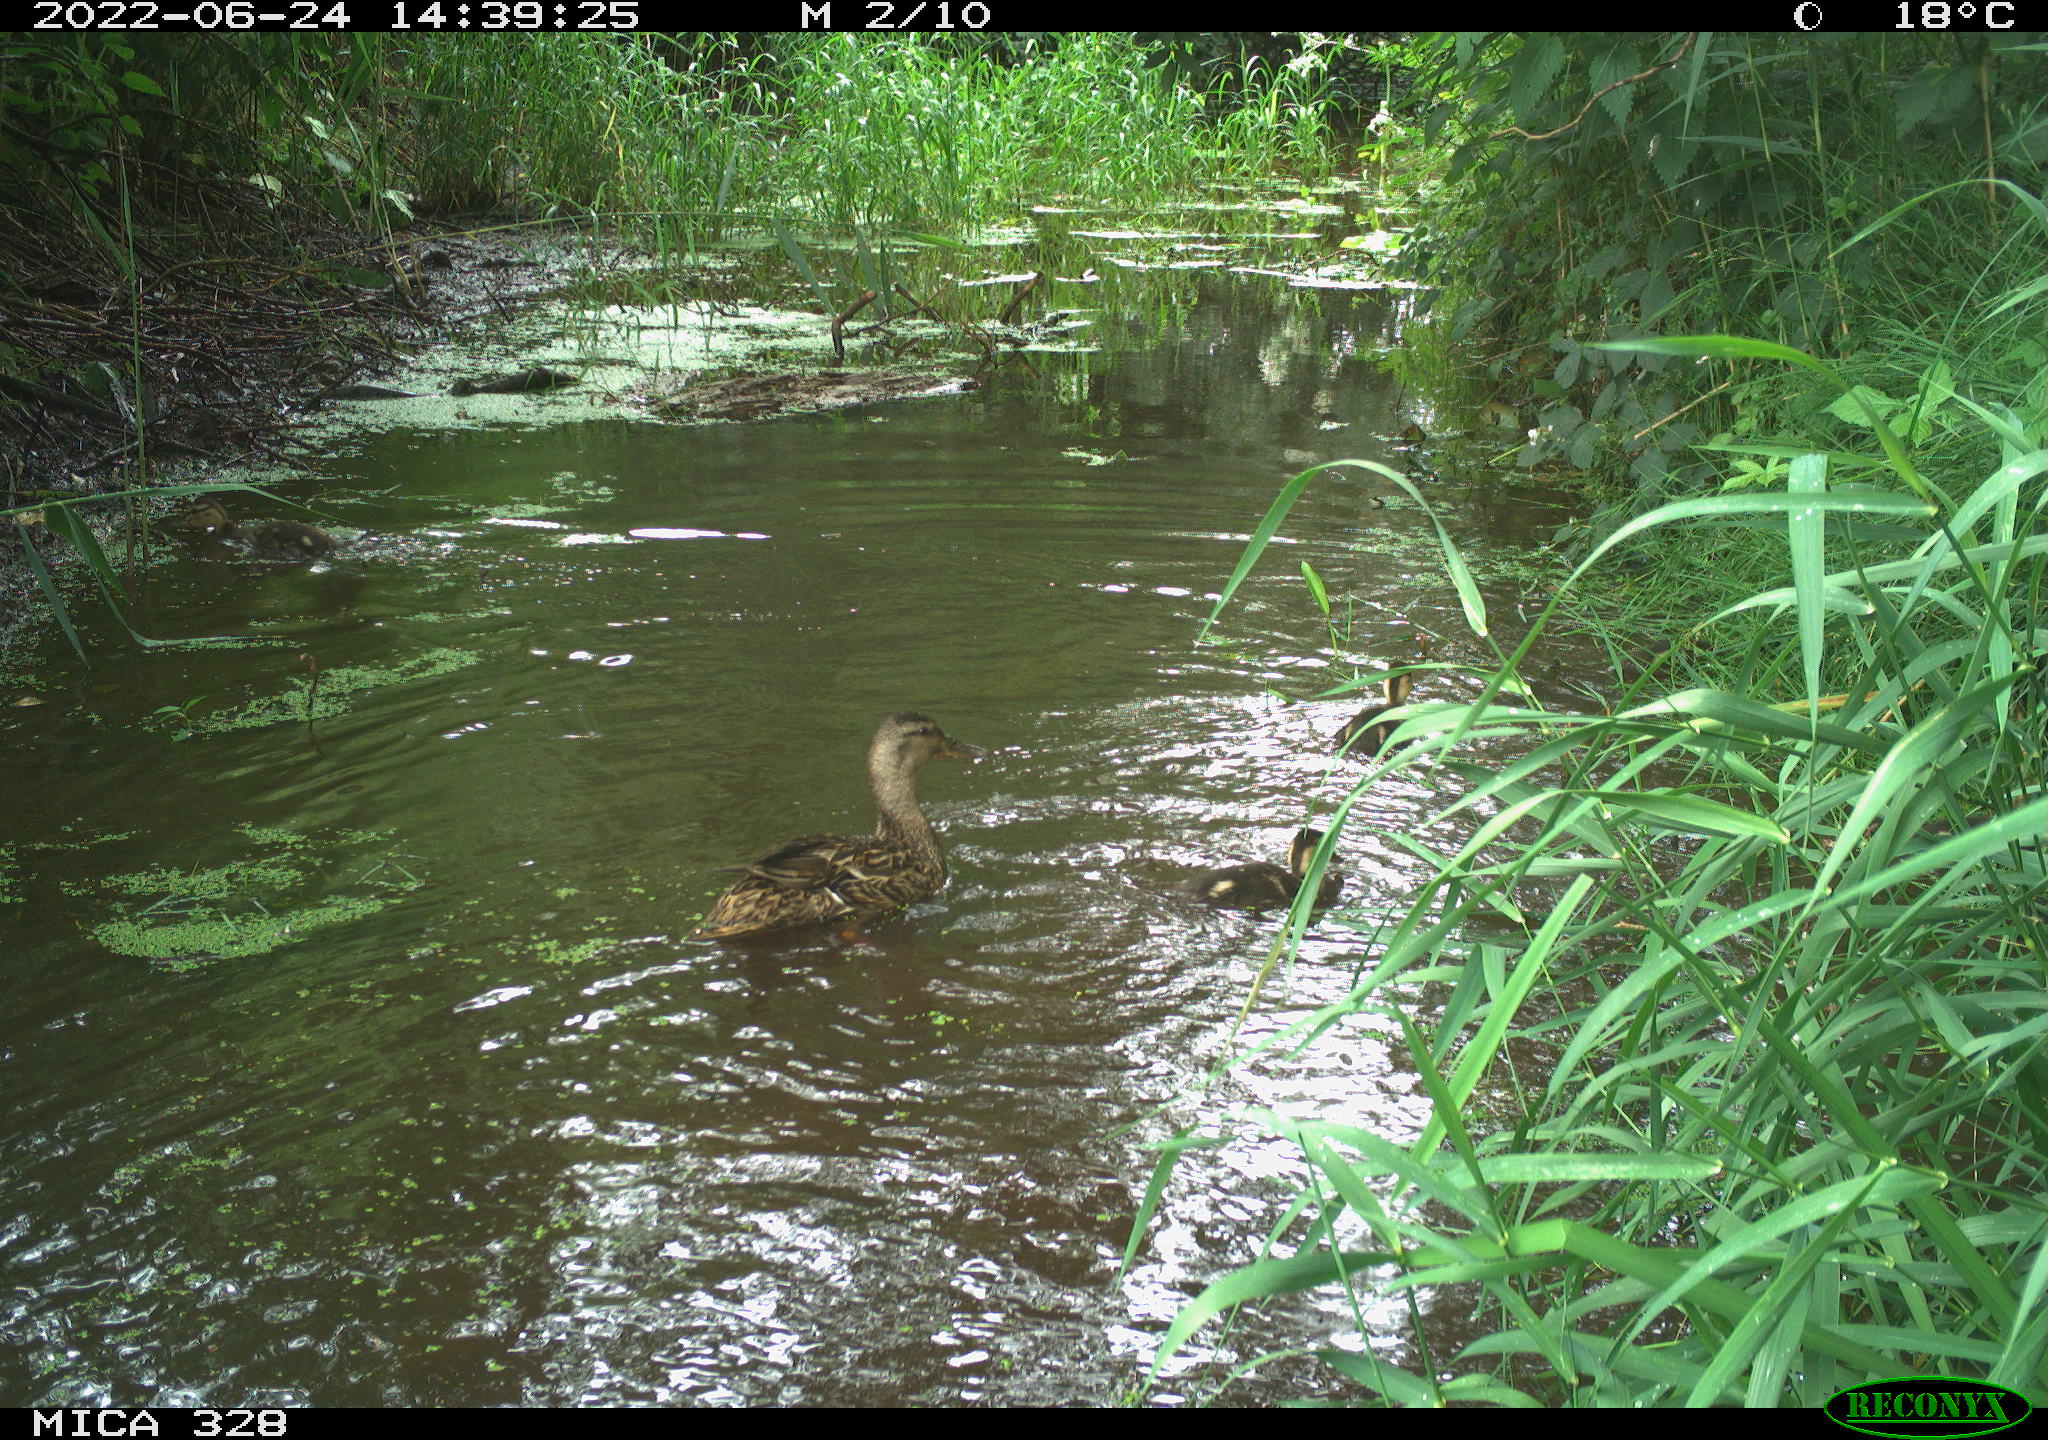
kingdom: Animalia
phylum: Chordata
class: Aves
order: Anseriformes
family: Anatidae
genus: Anas
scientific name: Anas platyrhynchos
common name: Mallard
